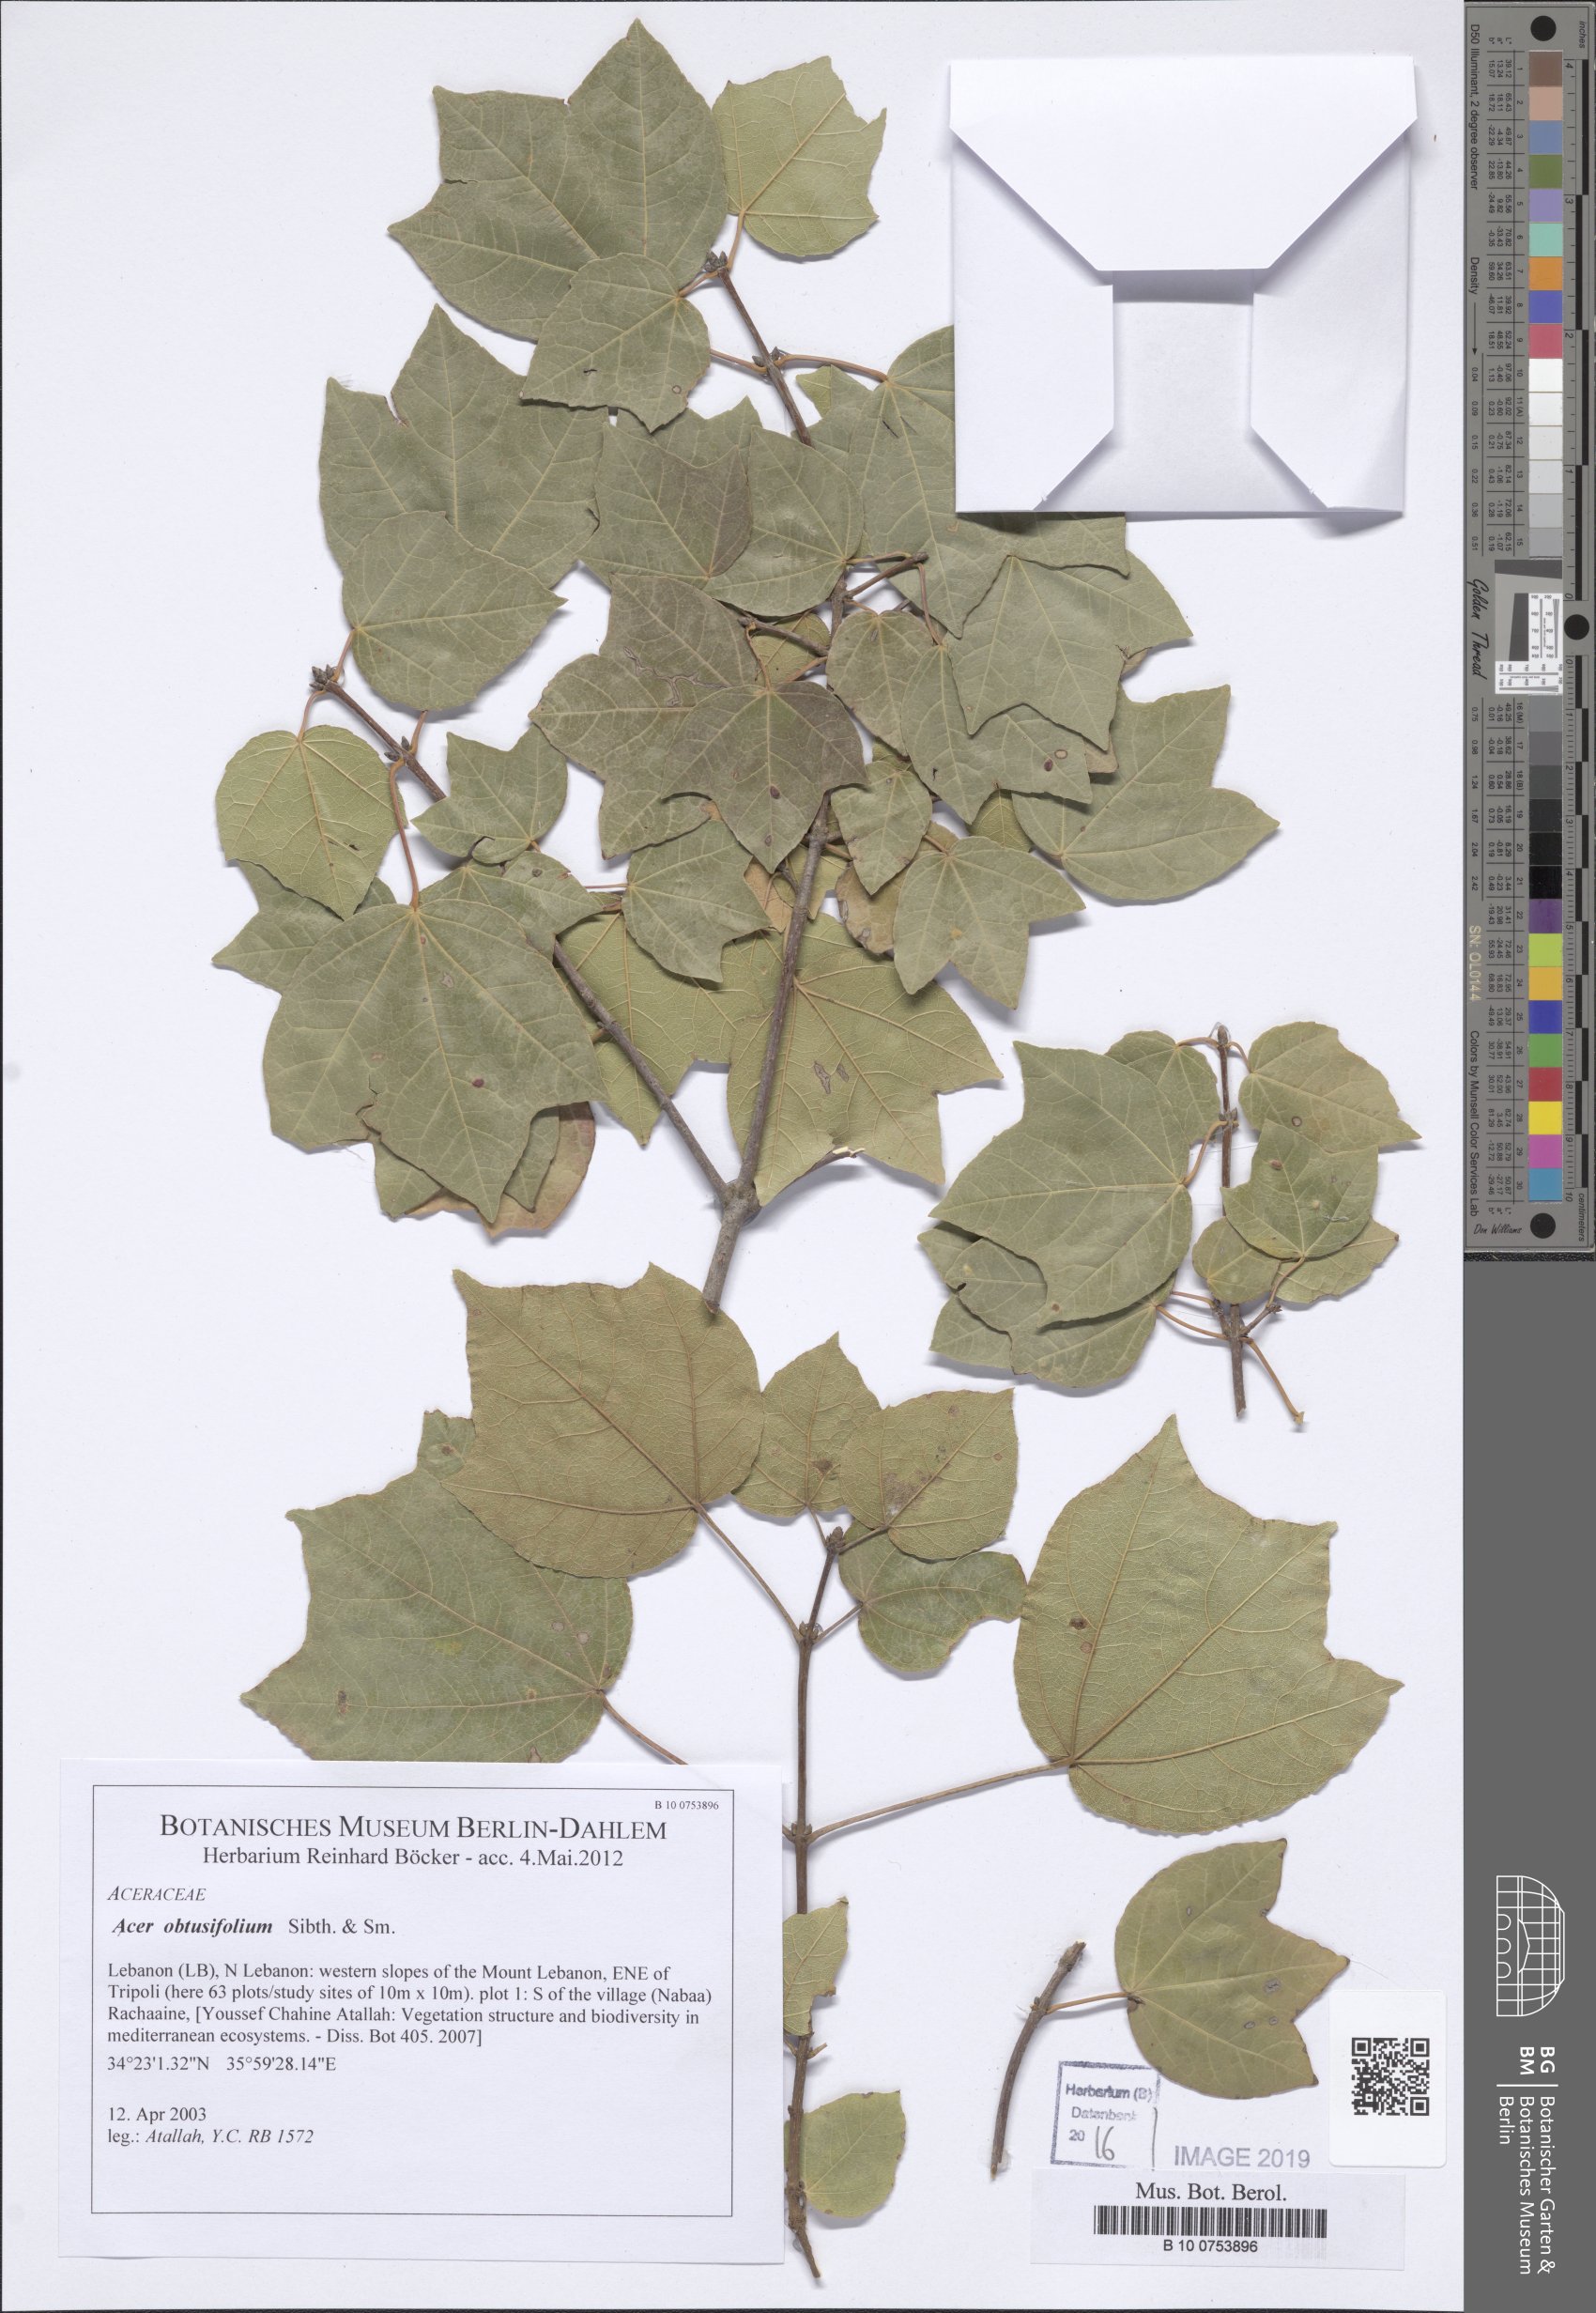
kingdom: Plantae
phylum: Tracheophyta
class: Magnoliopsida
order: Sapindales
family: Sapindaceae
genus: Acer
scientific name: Acer obtusifolium
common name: Cyprus maple
